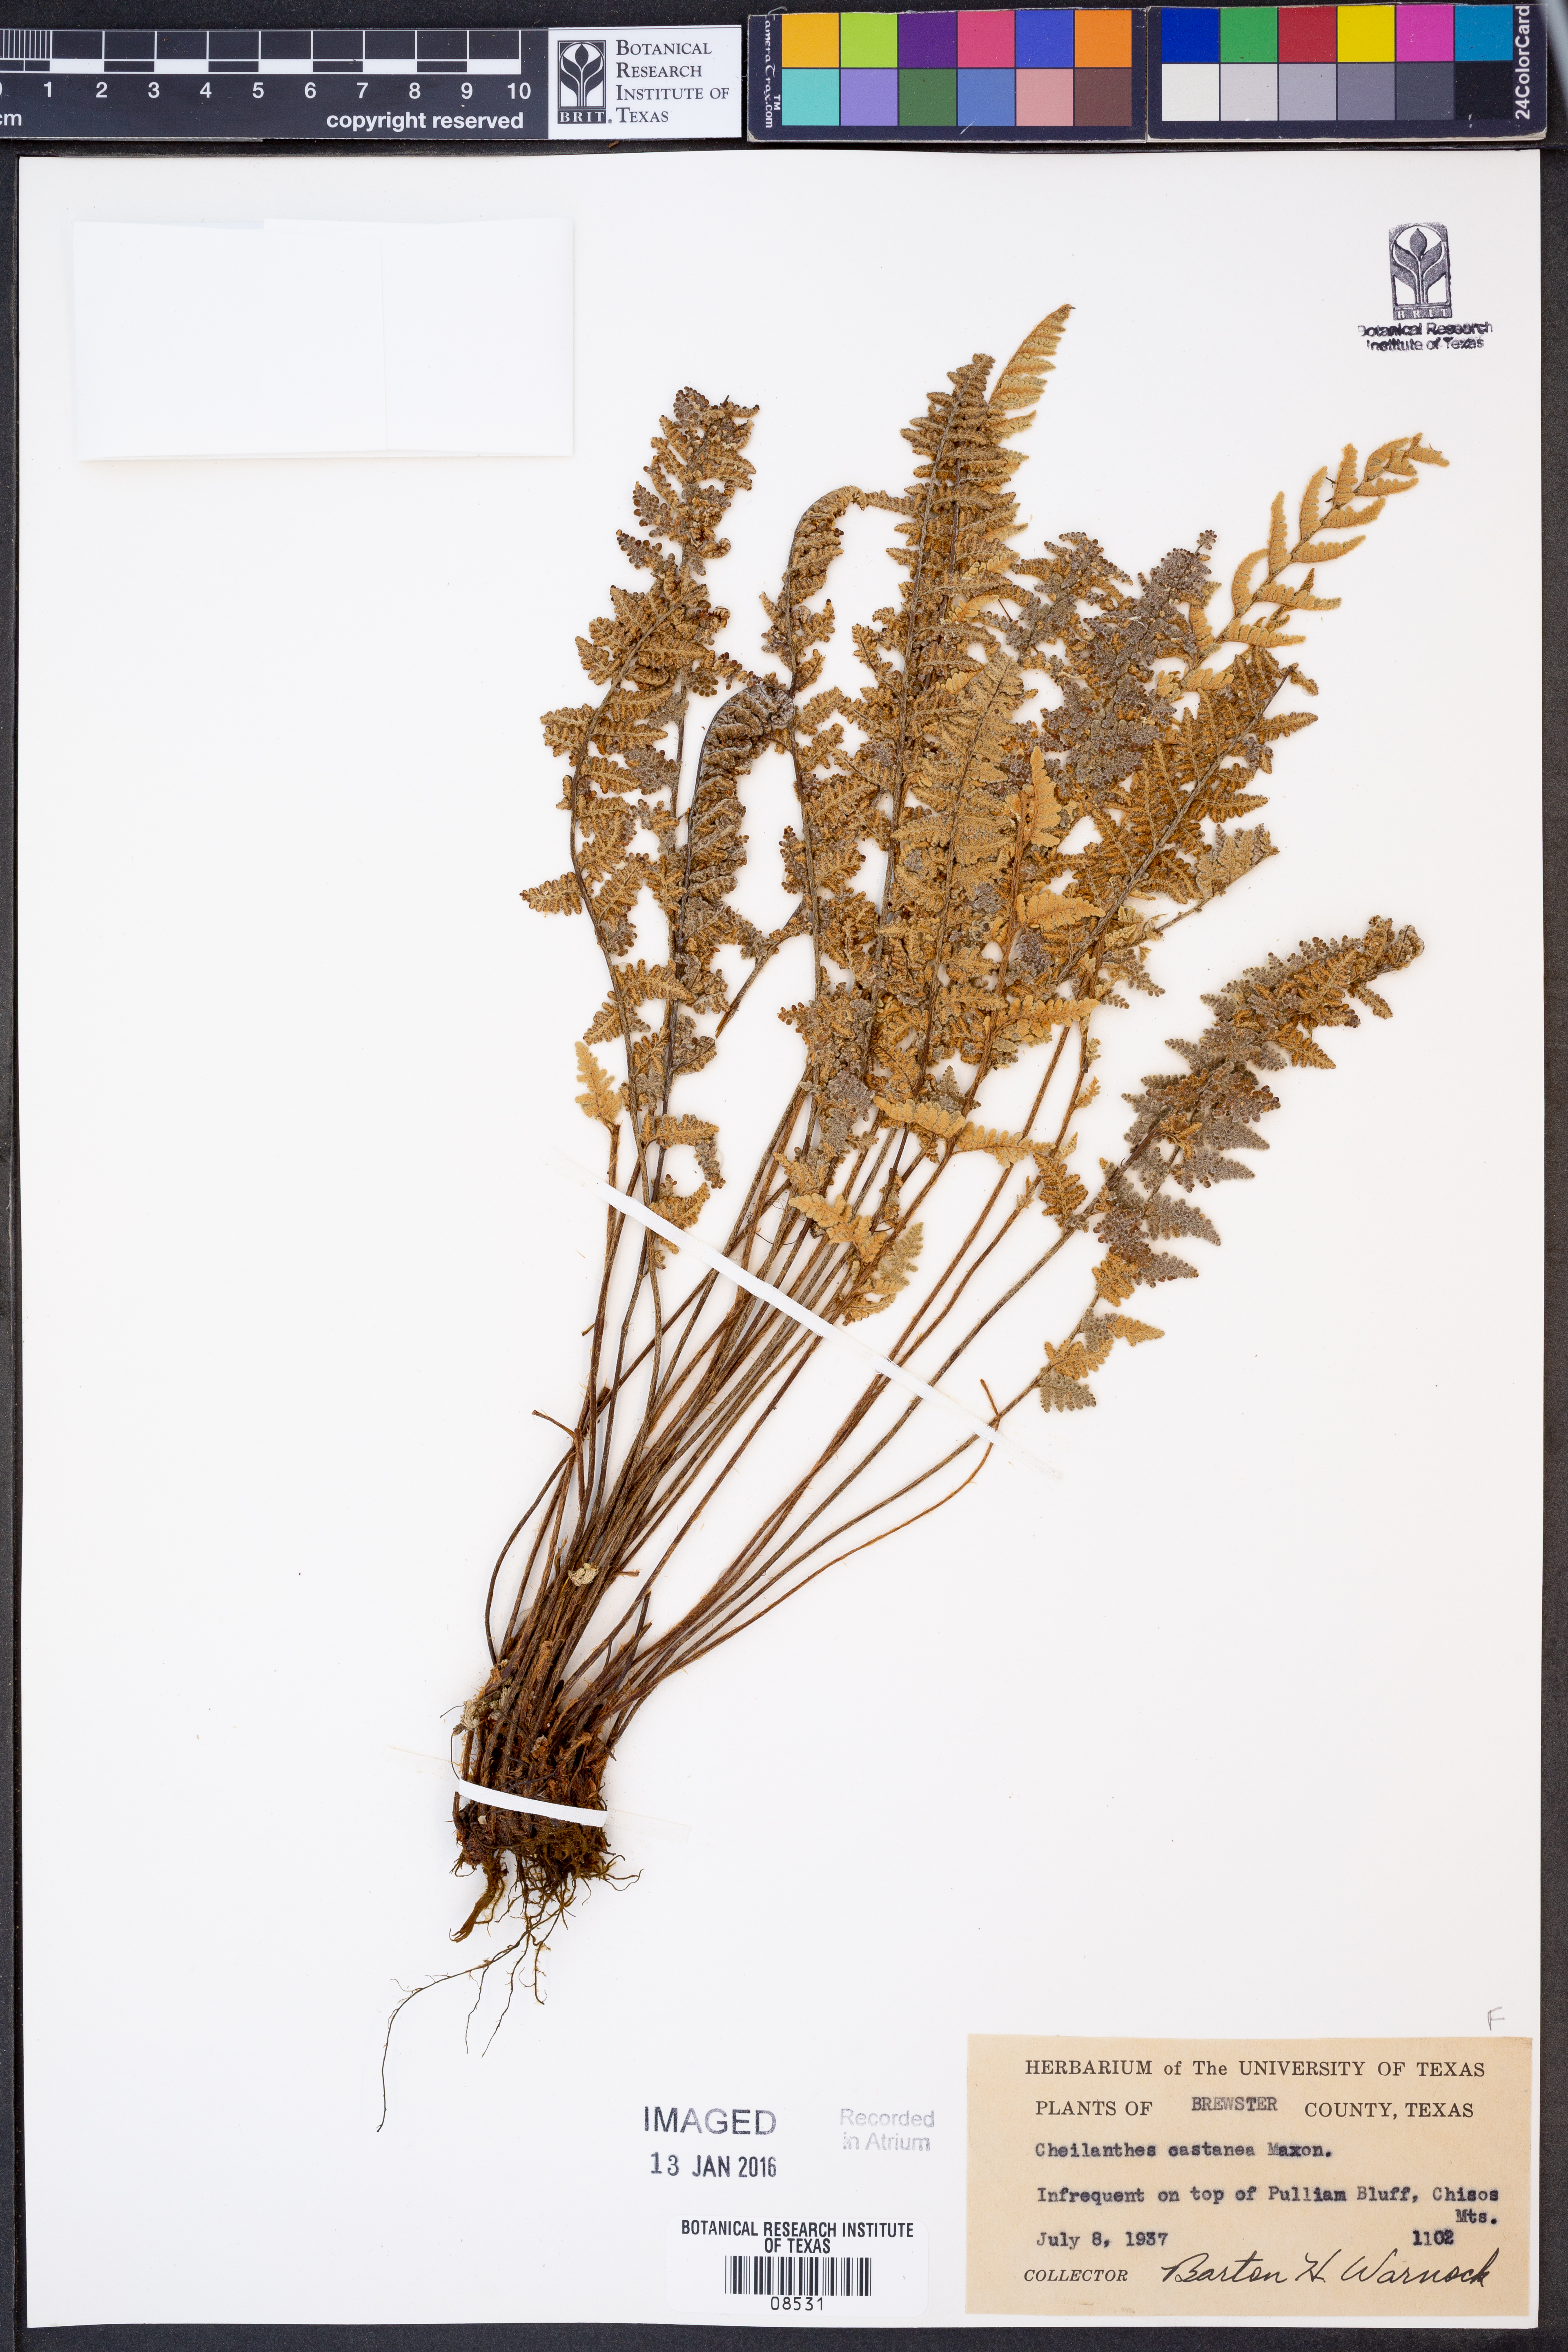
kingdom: Plantae
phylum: Tracheophyta
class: Polypodiopsida
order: Polypodiales
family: Pteridaceae
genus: Myriopteris
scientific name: Myriopteris rufa
